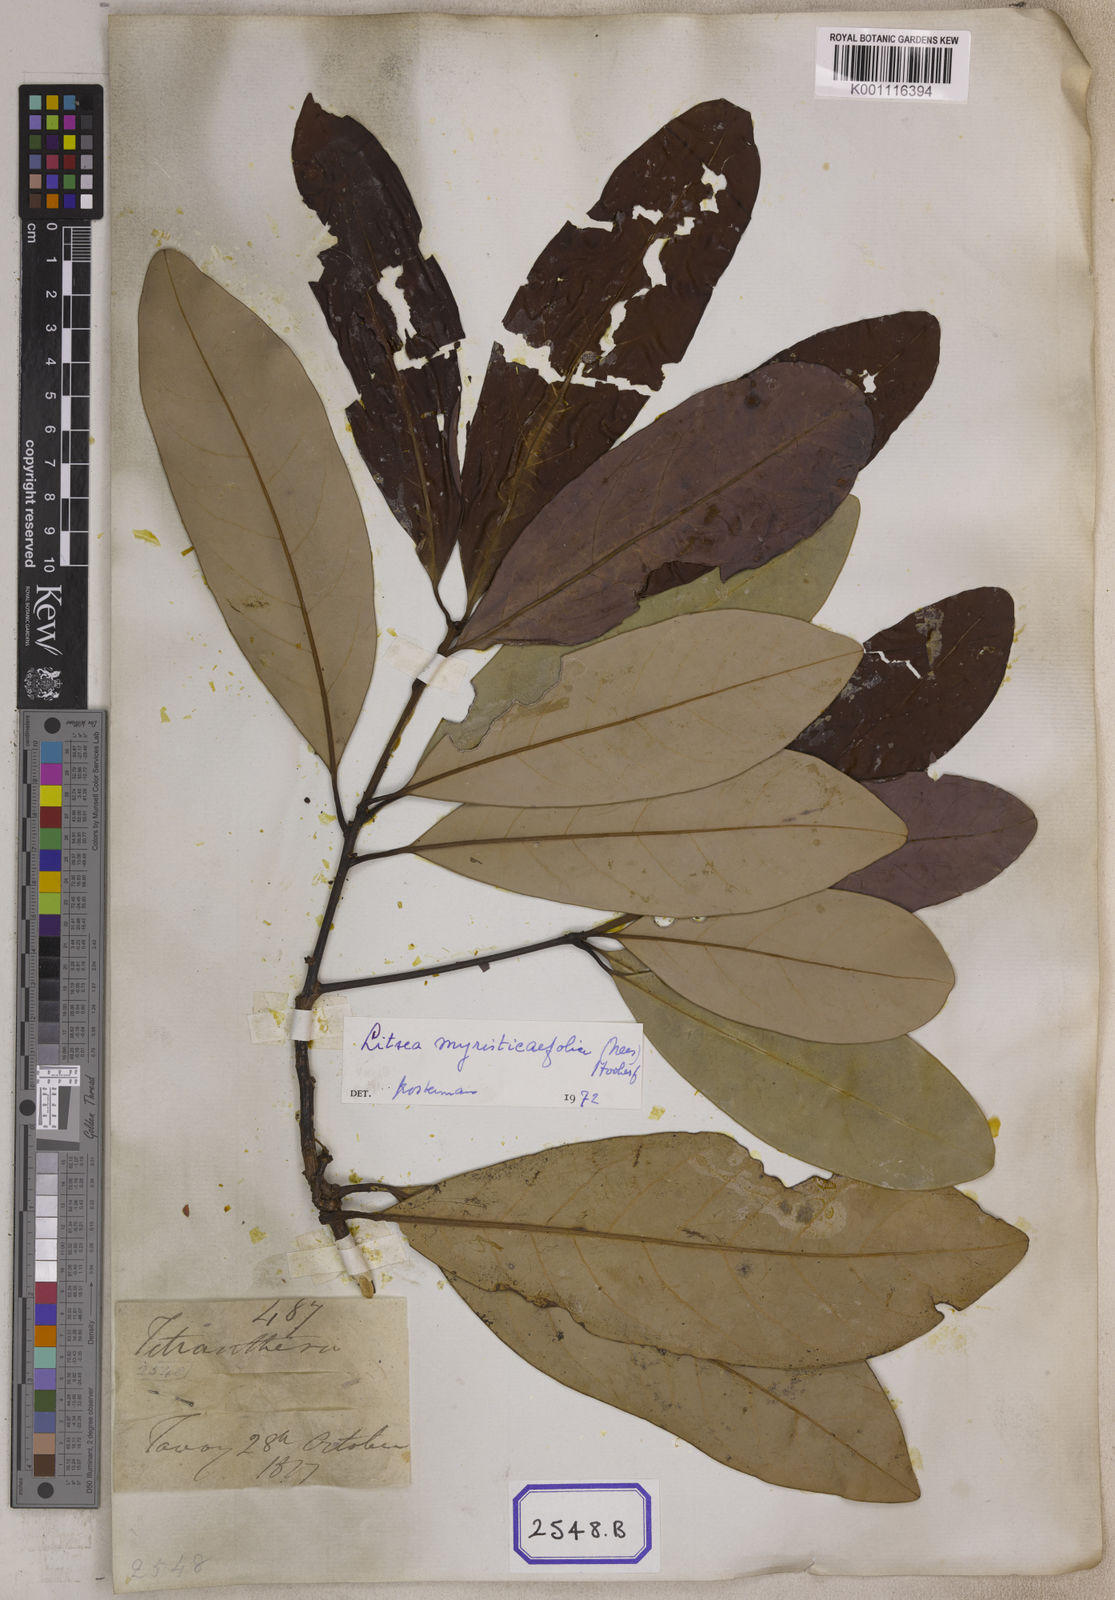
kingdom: Plantae
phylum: Tracheophyta
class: Magnoliopsida
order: Laurales
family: Lauraceae
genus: Litsea
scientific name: Litsea
